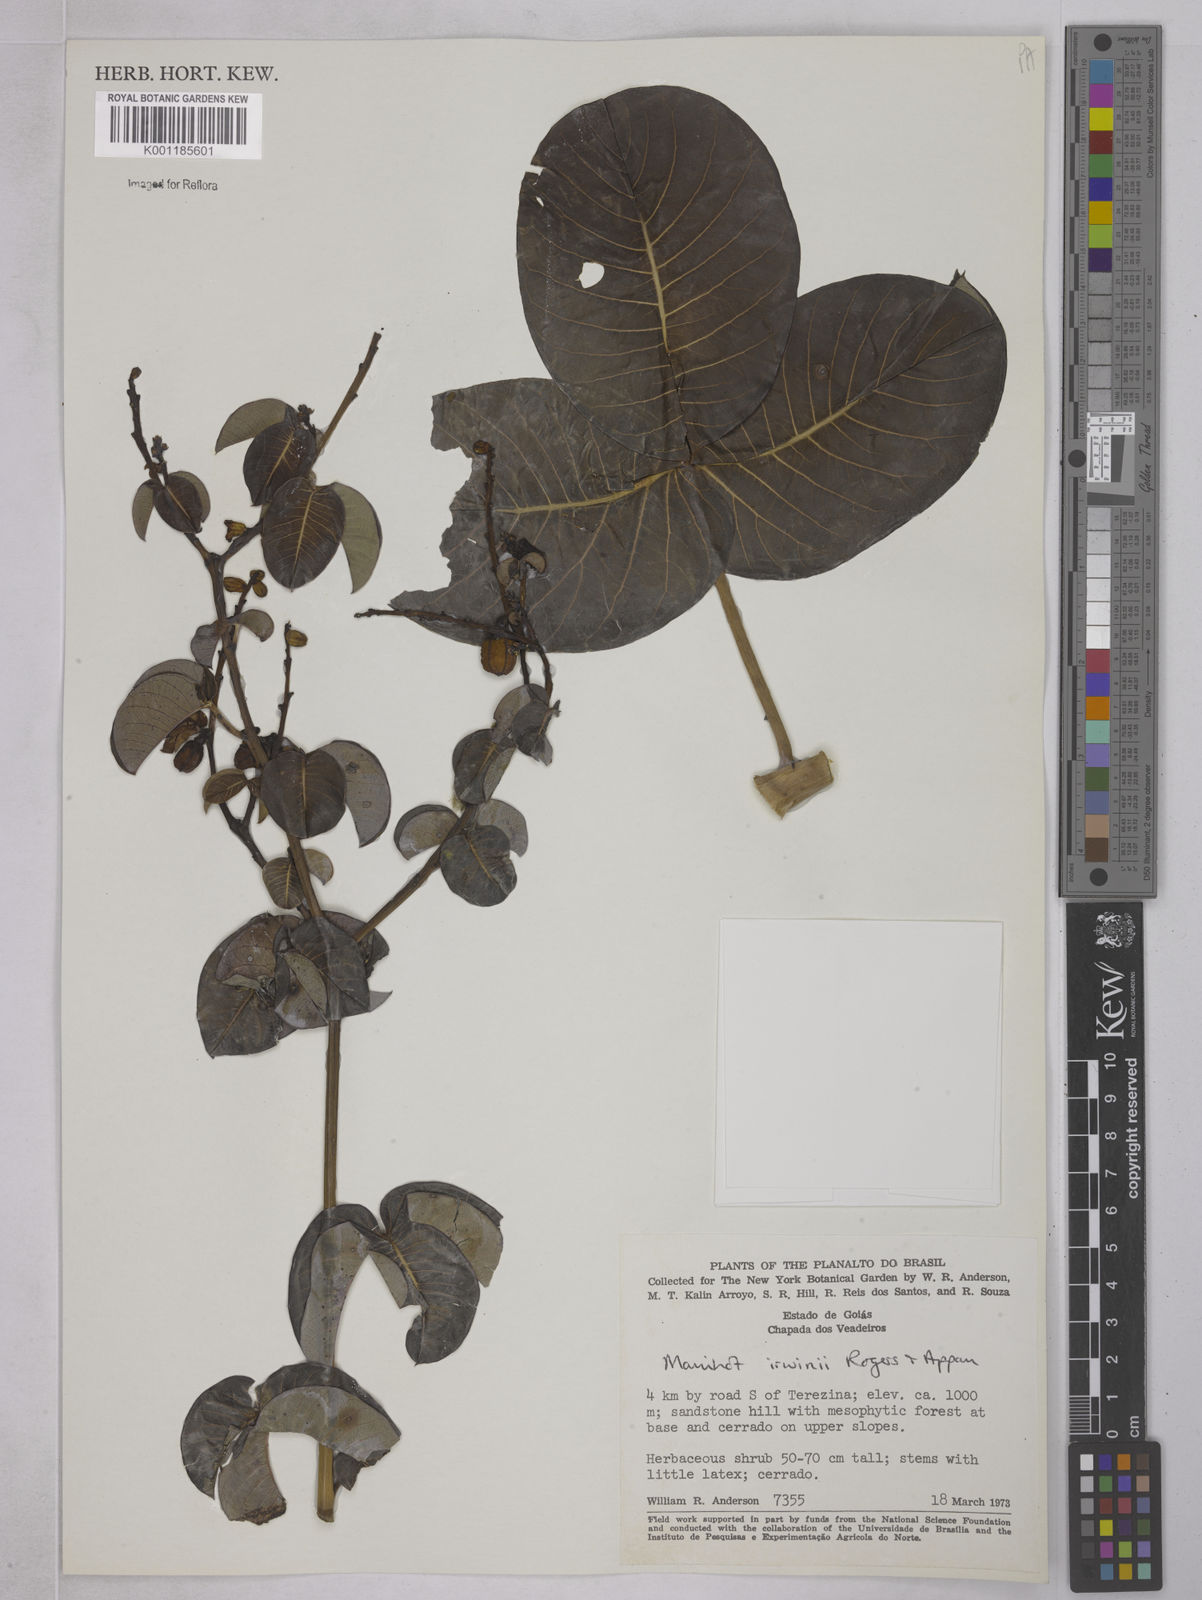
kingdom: Plantae
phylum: Tracheophyta
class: Magnoliopsida
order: Malpighiales
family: Euphorbiaceae
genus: Manihot
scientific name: Manihot irwinii
